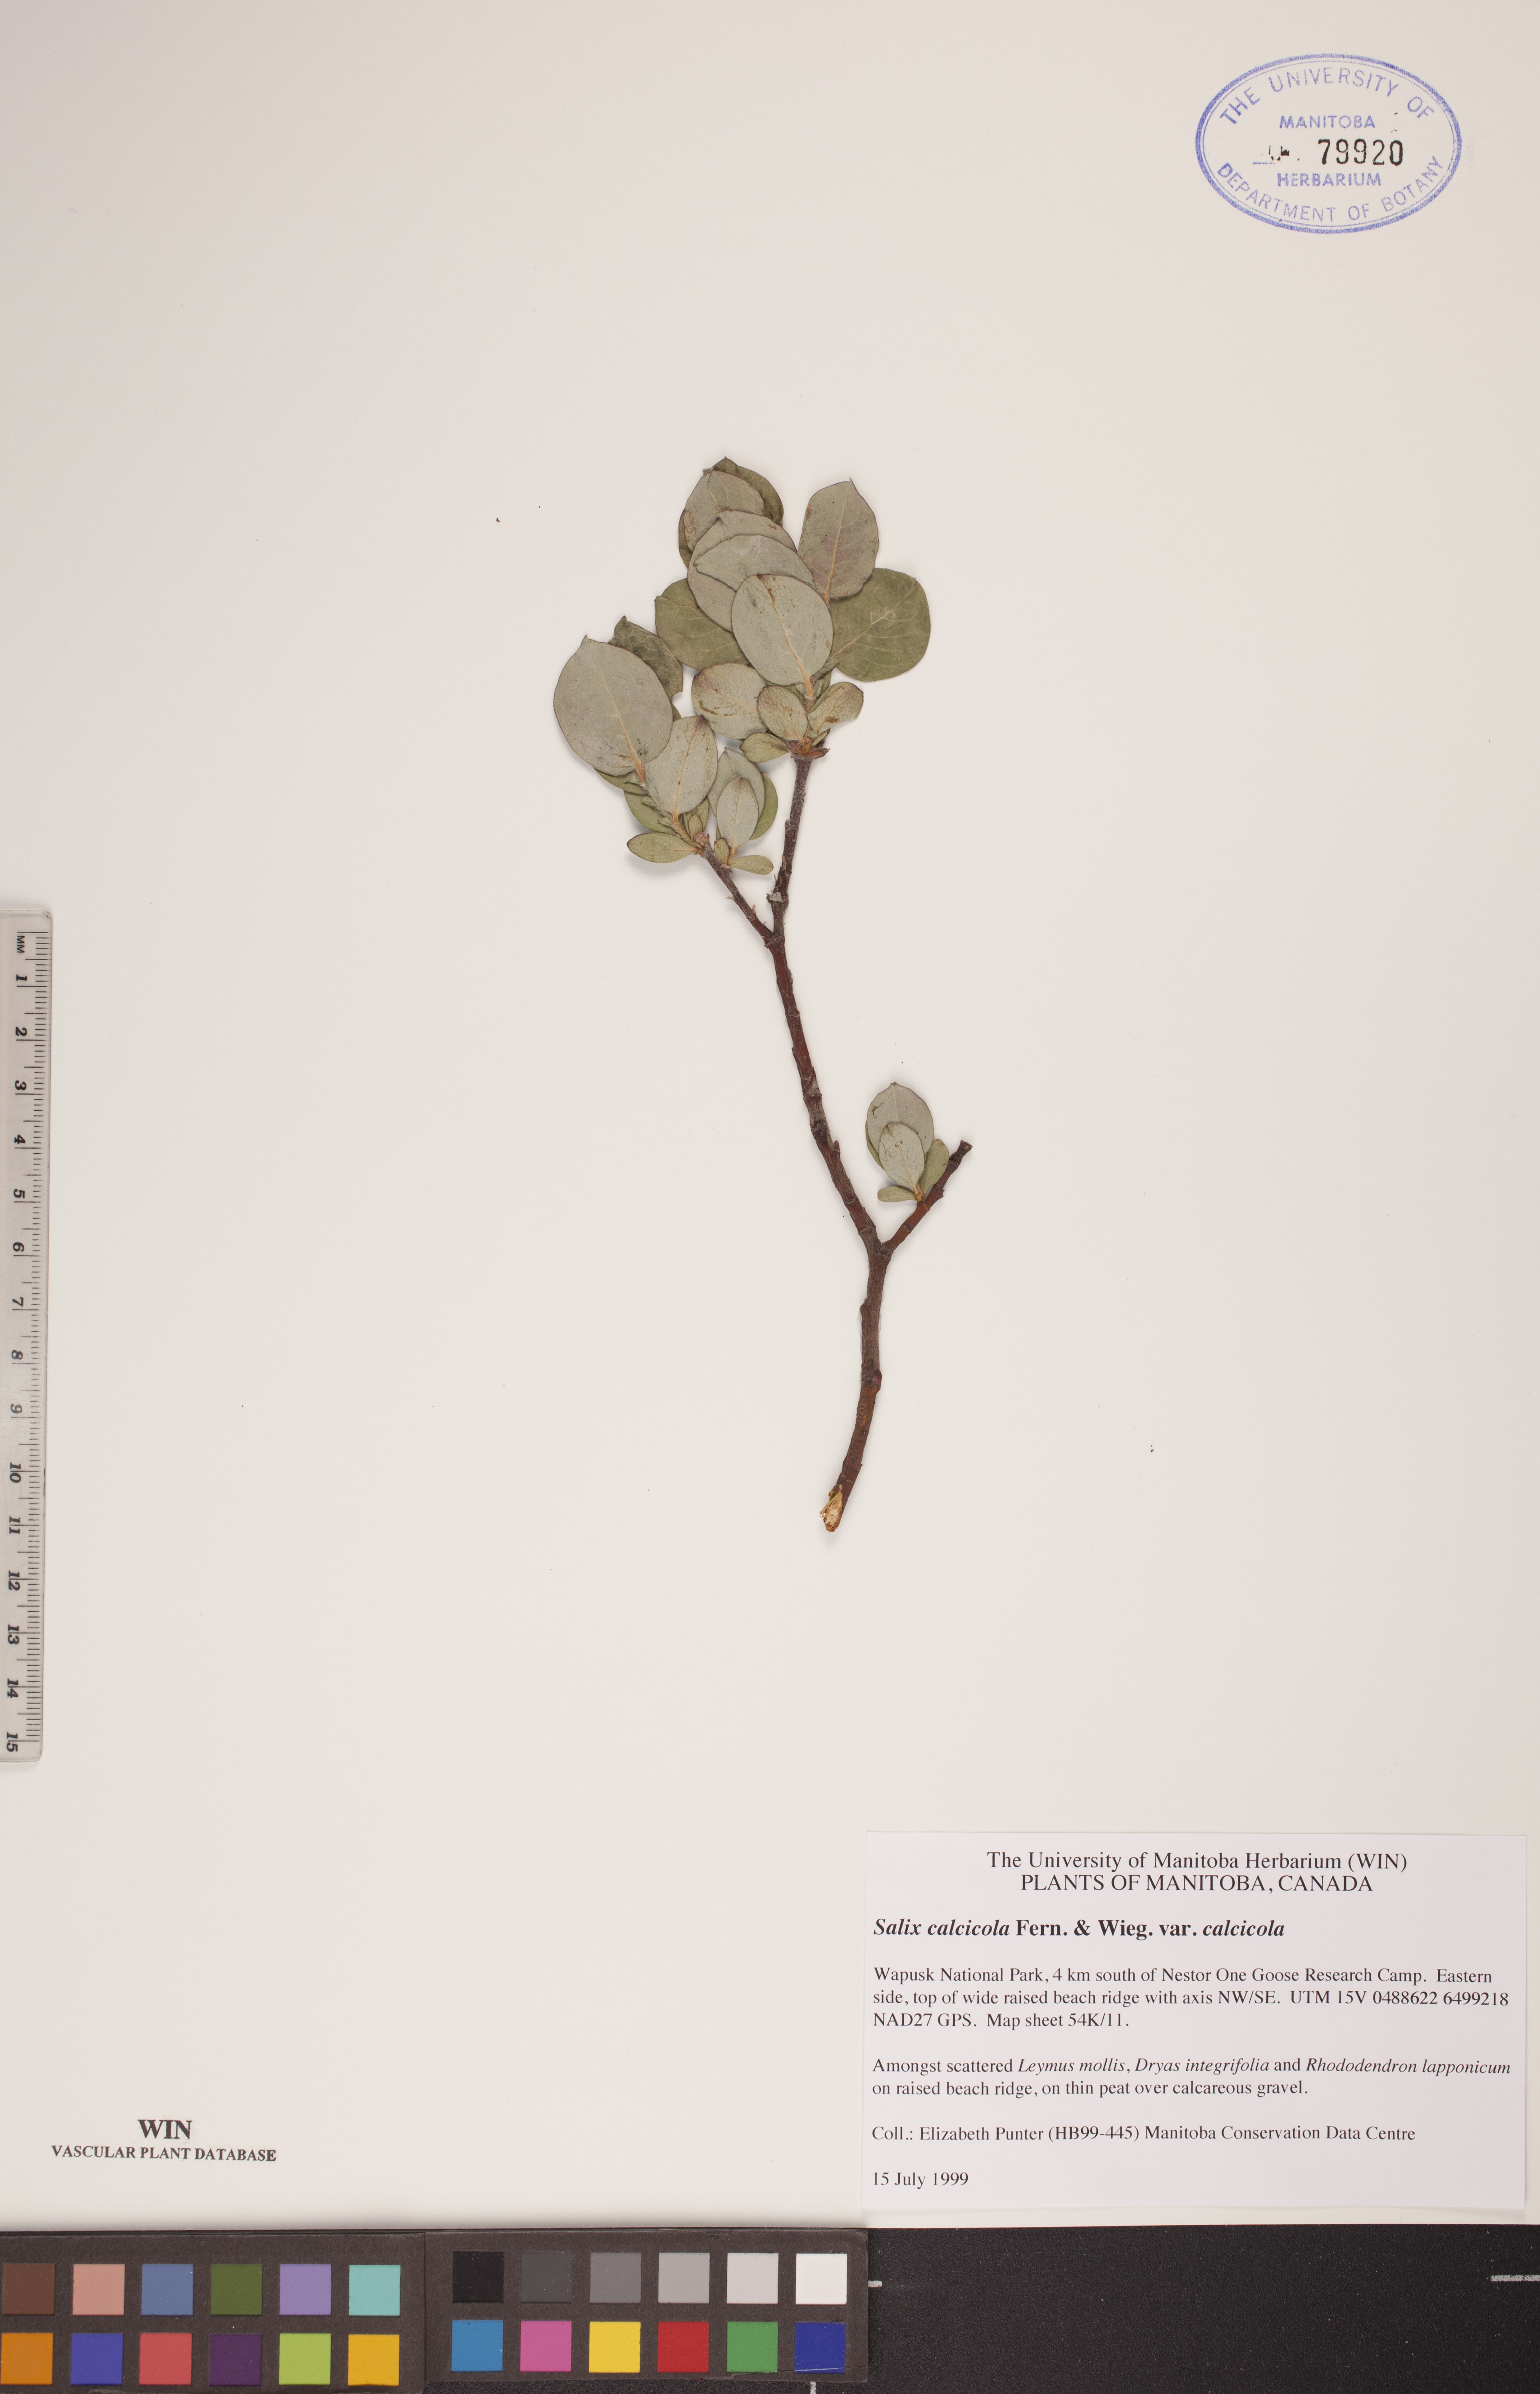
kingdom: Plantae
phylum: Tracheophyta
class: Magnoliopsida
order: Malpighiales
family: Salicaceae
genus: Salix
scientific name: Salix calcicola
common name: Calcareous willow
